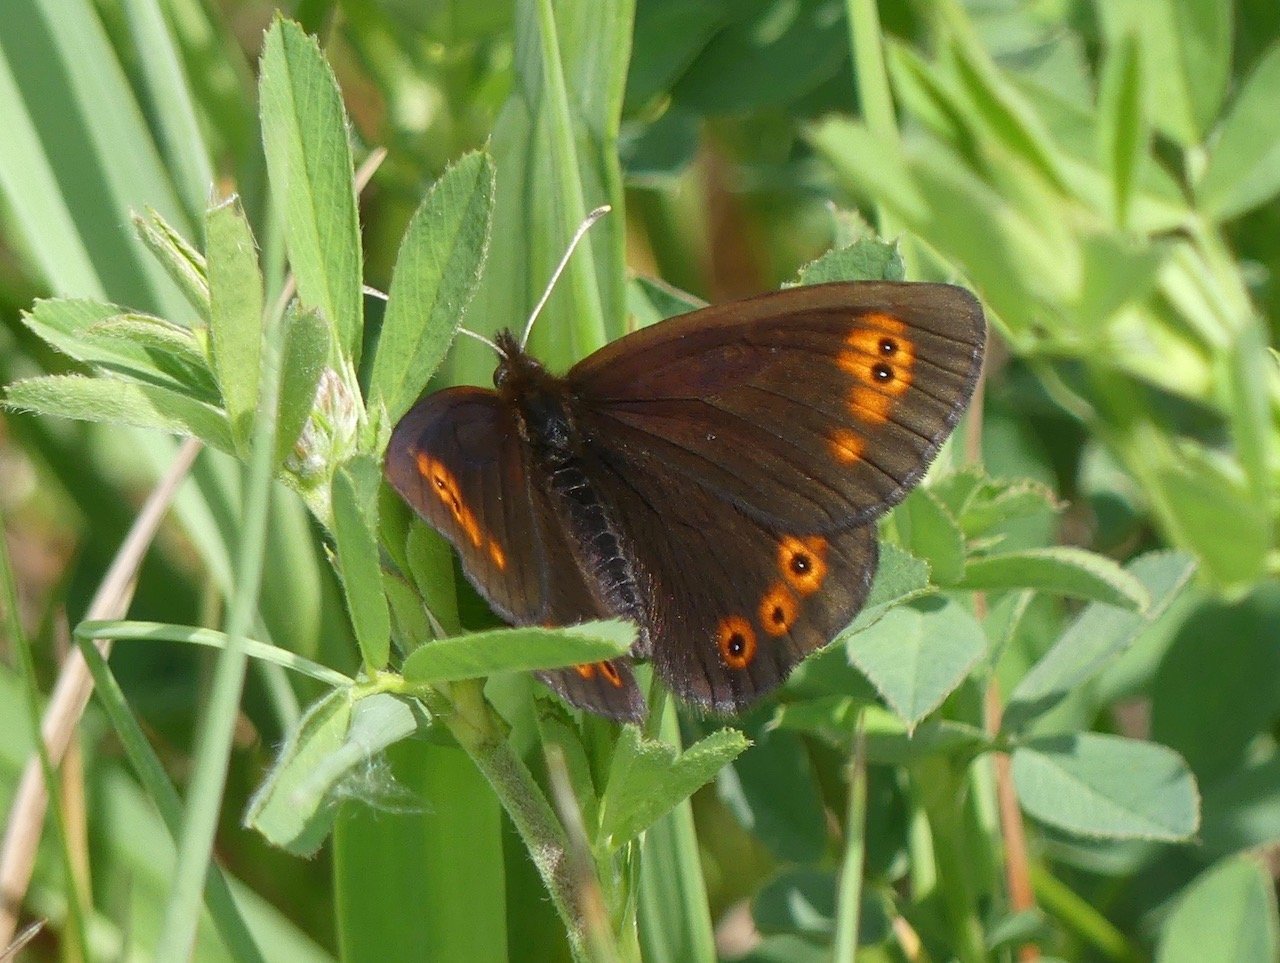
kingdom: Animalia
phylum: Arthropoda
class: Insecta
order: Lepidoptera
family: Nymphalidae
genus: Erebia
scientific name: Erebia epipsodea
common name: Common Alpine
